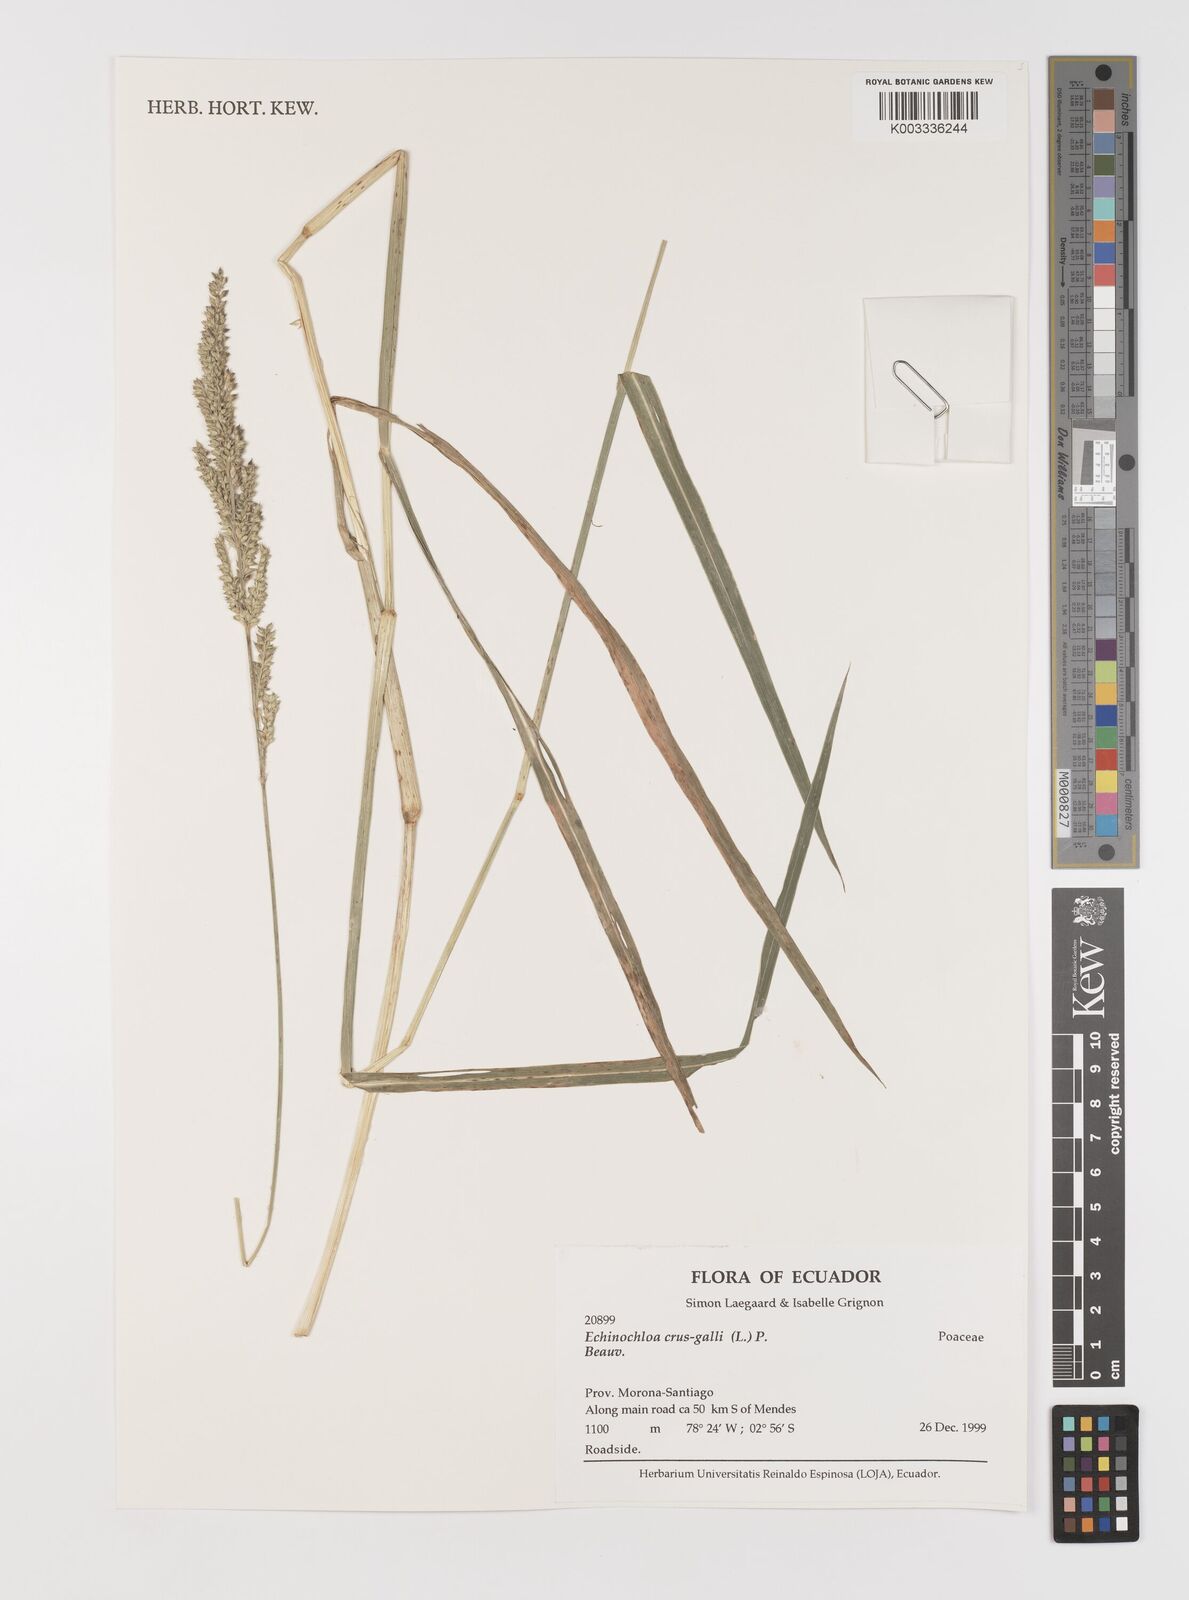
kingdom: Plantae
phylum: Tracheophyta
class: Liliopsida
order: Poales
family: Poaceae
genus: Echinochloa
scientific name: Echinochloa crus-galli
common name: Cockspur
